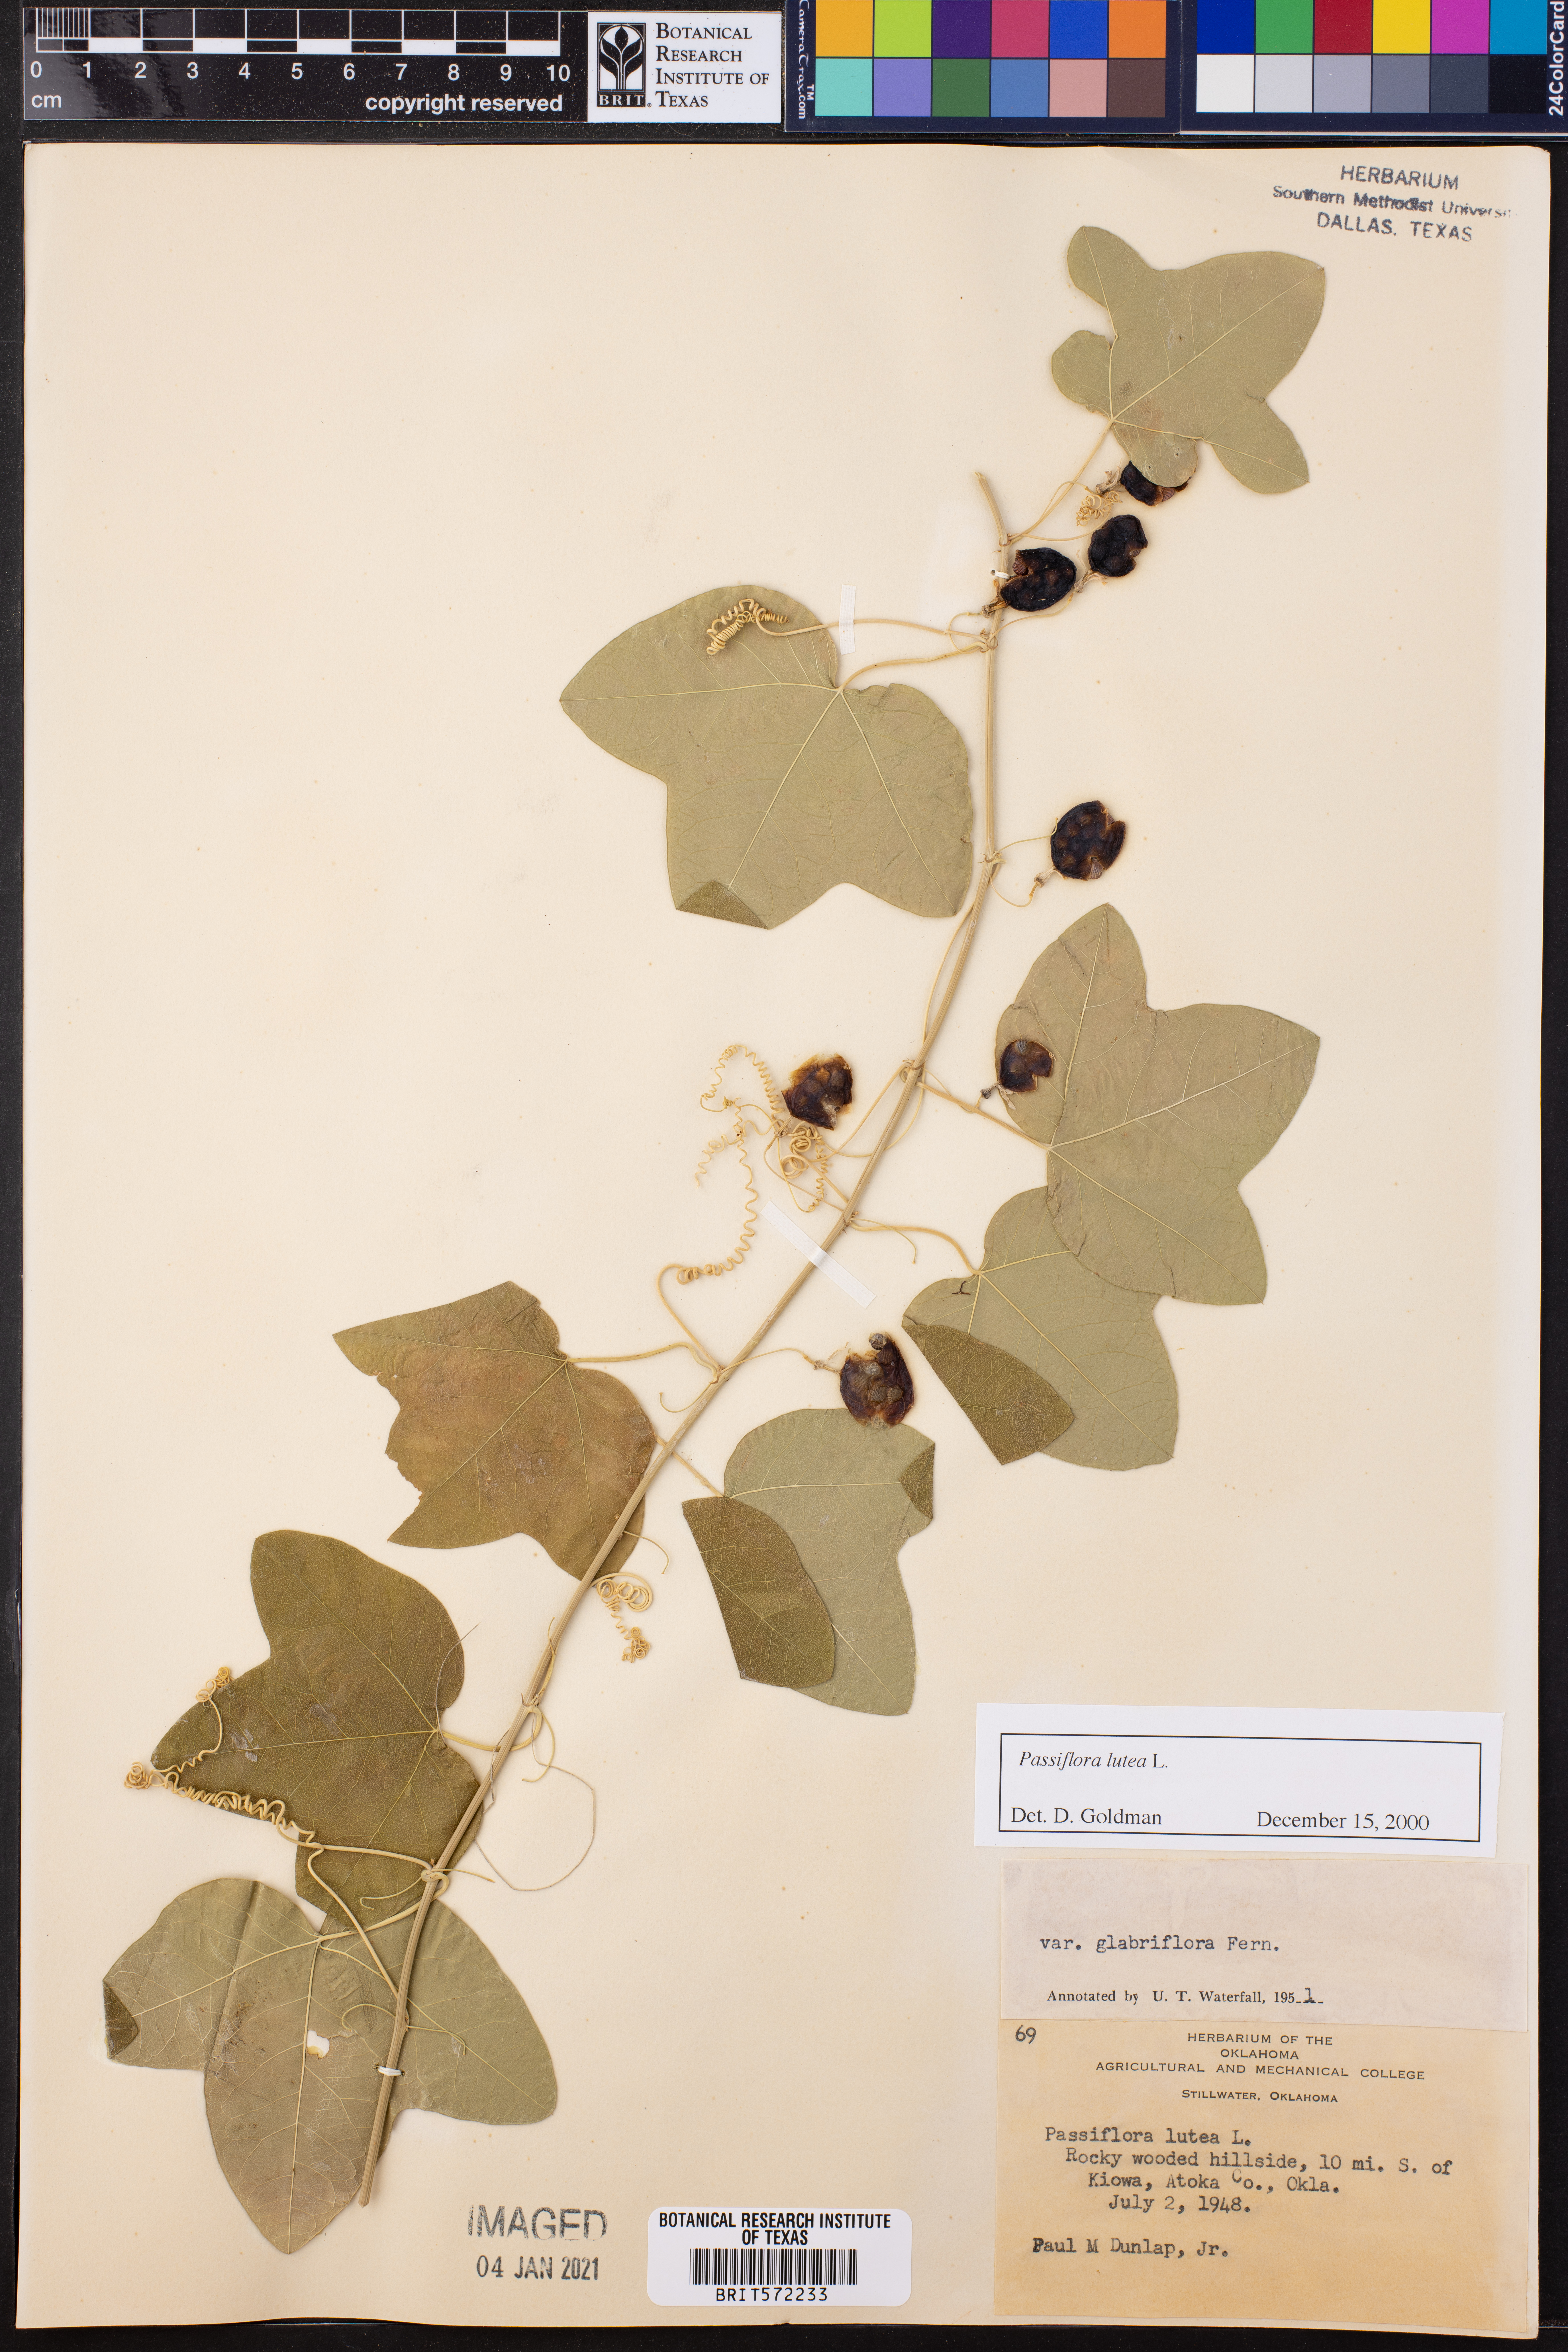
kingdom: Plantae
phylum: Tracheophyta
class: Magnoliopsida
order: Malpighiales
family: Passifloraceae
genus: Passiflora
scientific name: Passiflora lutea
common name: Yellow passionflower
